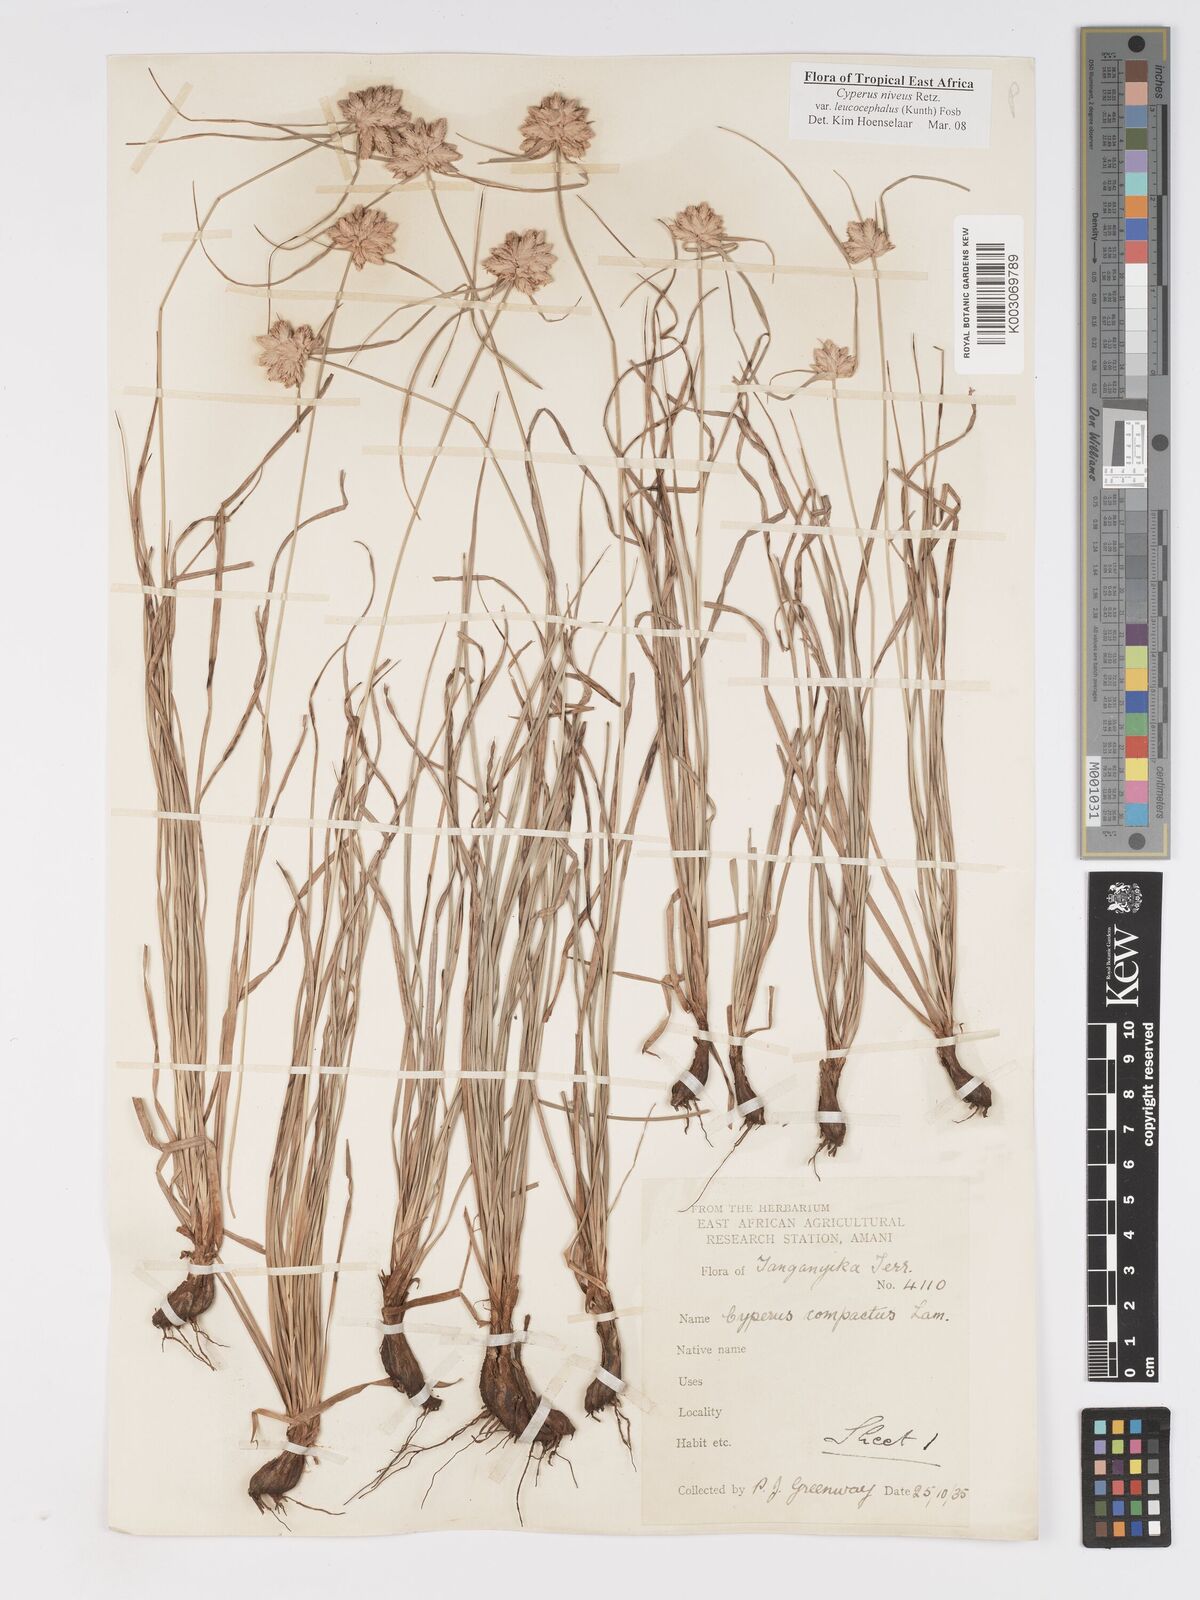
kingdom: Plantae
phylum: Tracheophyta
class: Liliopsida
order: Poales
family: Cyperaceae
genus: Cyperus
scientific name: Cyperus niveus
